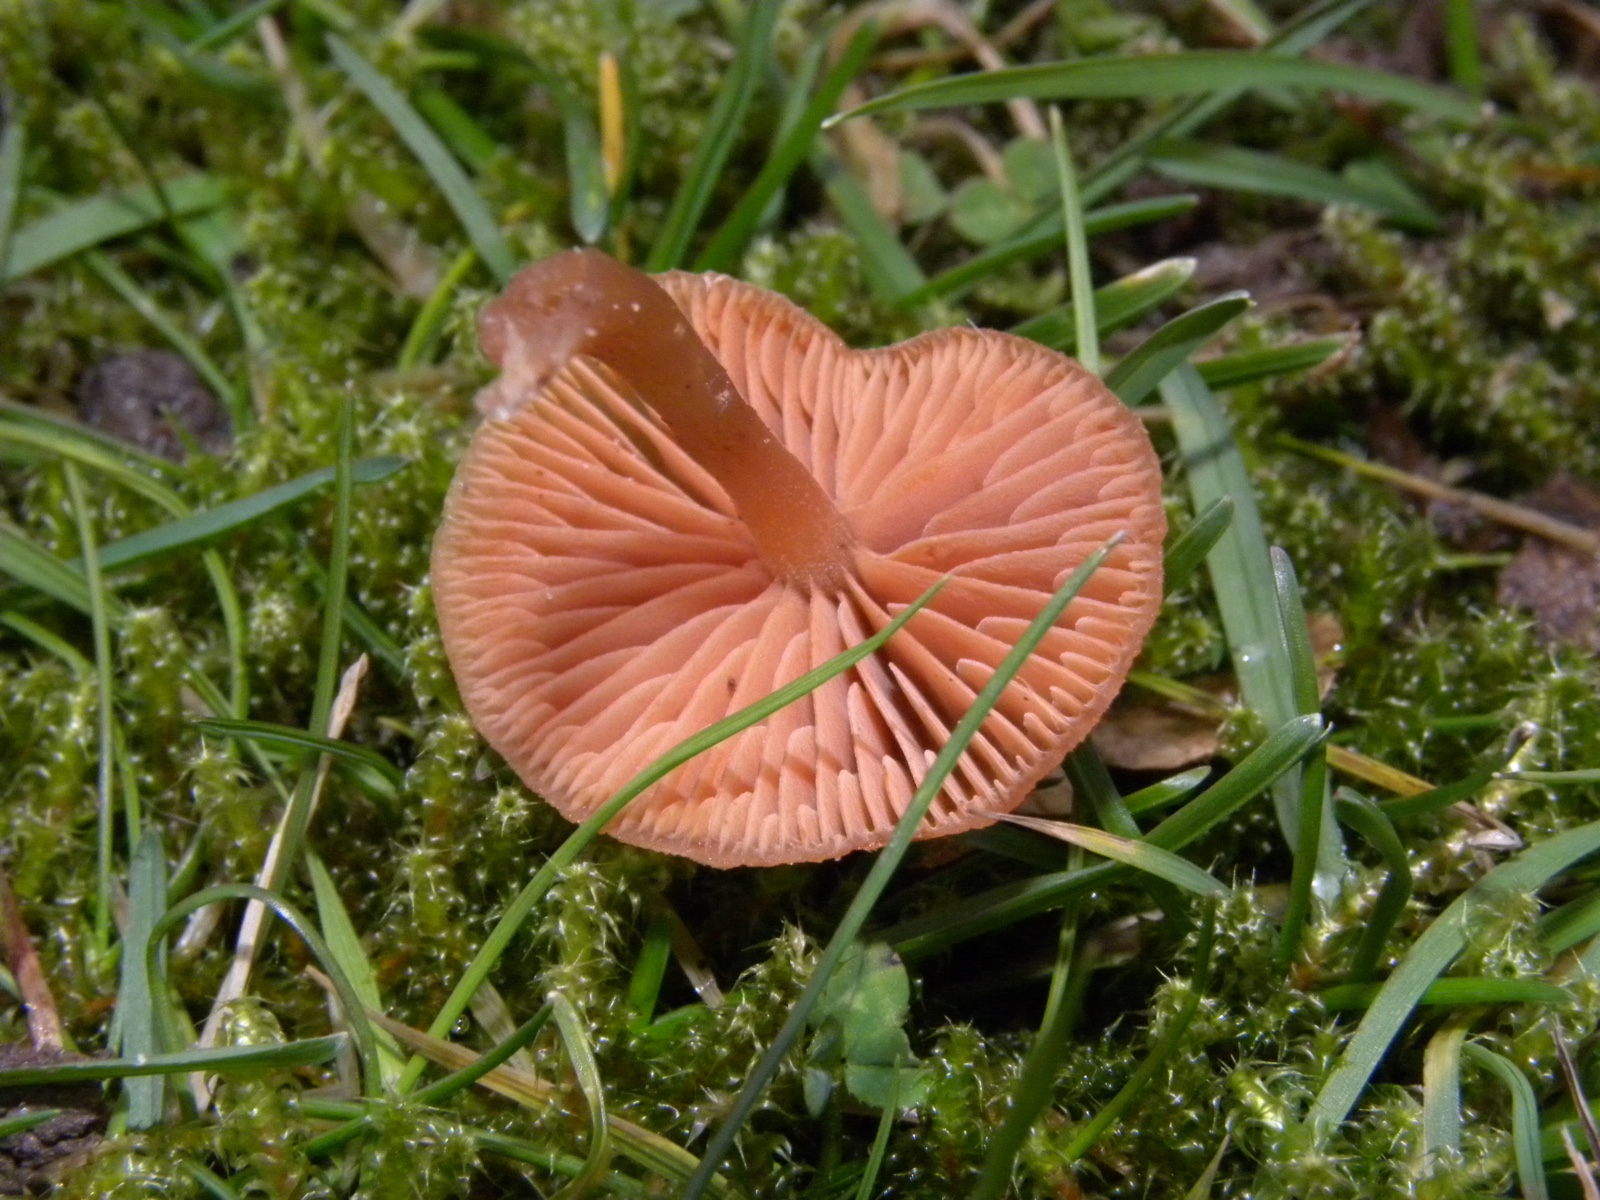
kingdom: Fungi
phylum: Basidiomycota
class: Agaricomycetes
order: Agaricales
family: Tubariaceae
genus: Tubaria
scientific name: Tubaria furfuracea
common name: kliddet fnughat
